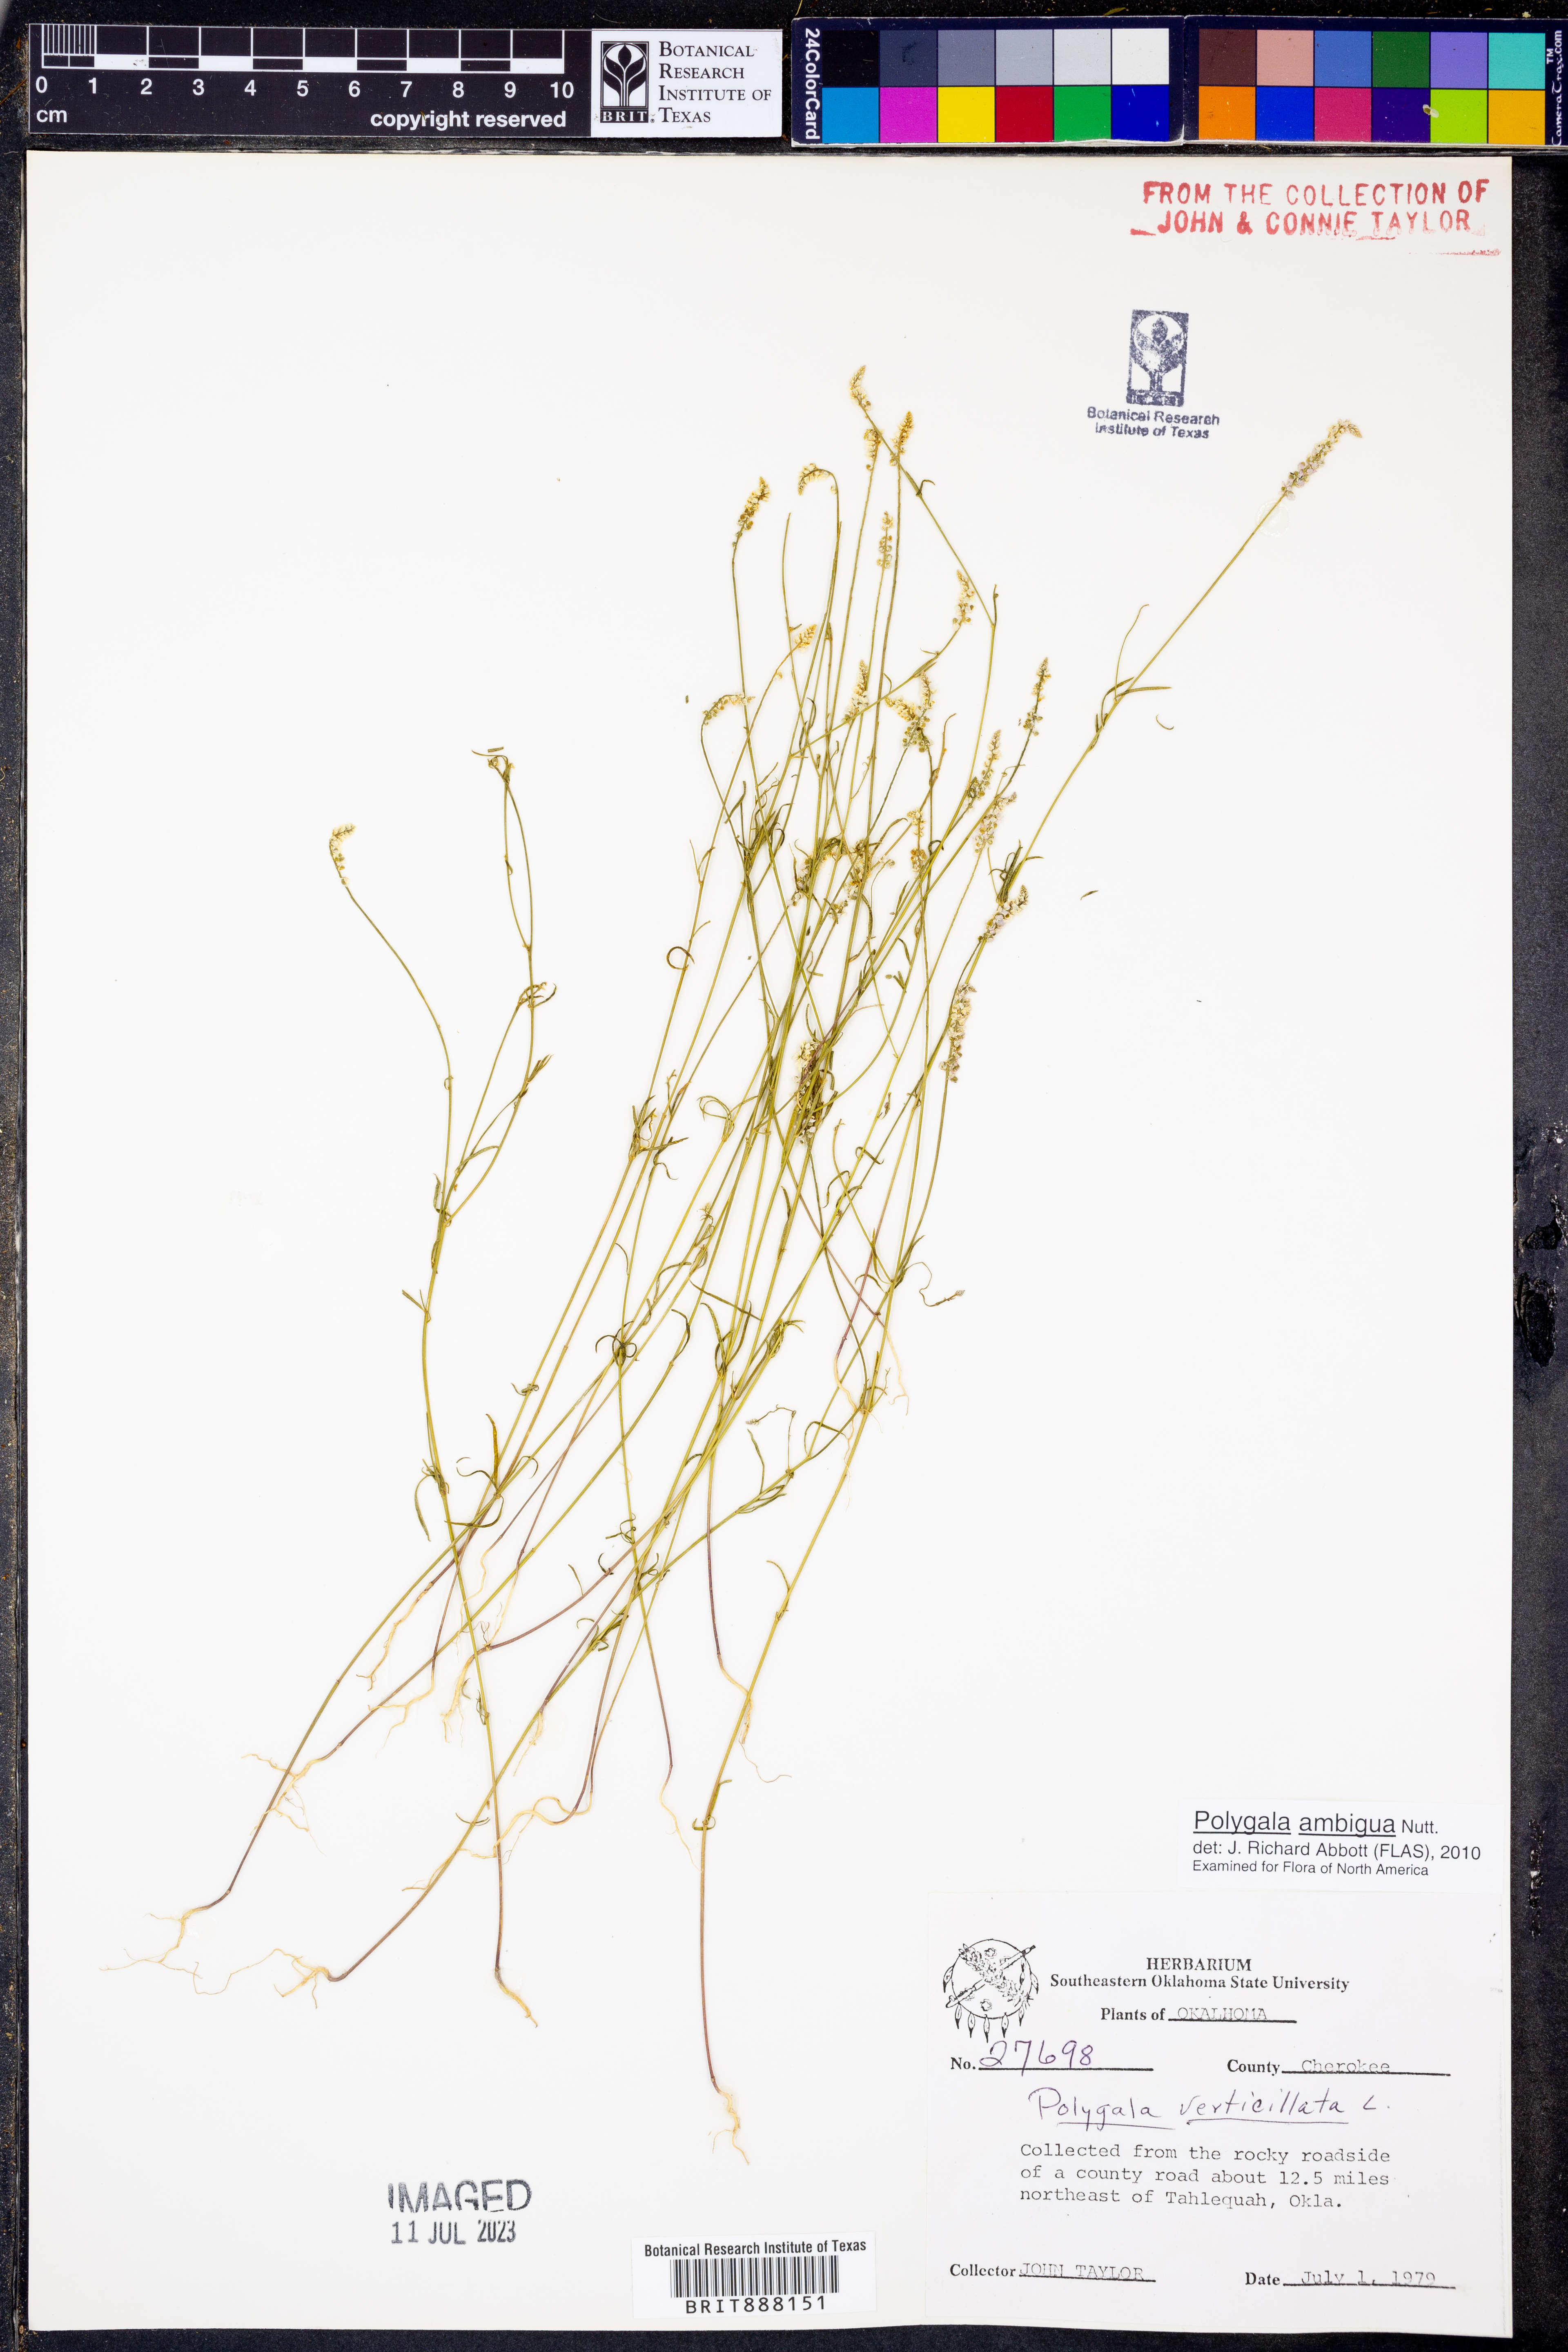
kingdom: Plantae
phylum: Tracheophyta
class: Magnoliopsida
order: Fabales
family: Polygalaceae
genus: Polygala
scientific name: Polygala ambigua
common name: Alternate milkwort
